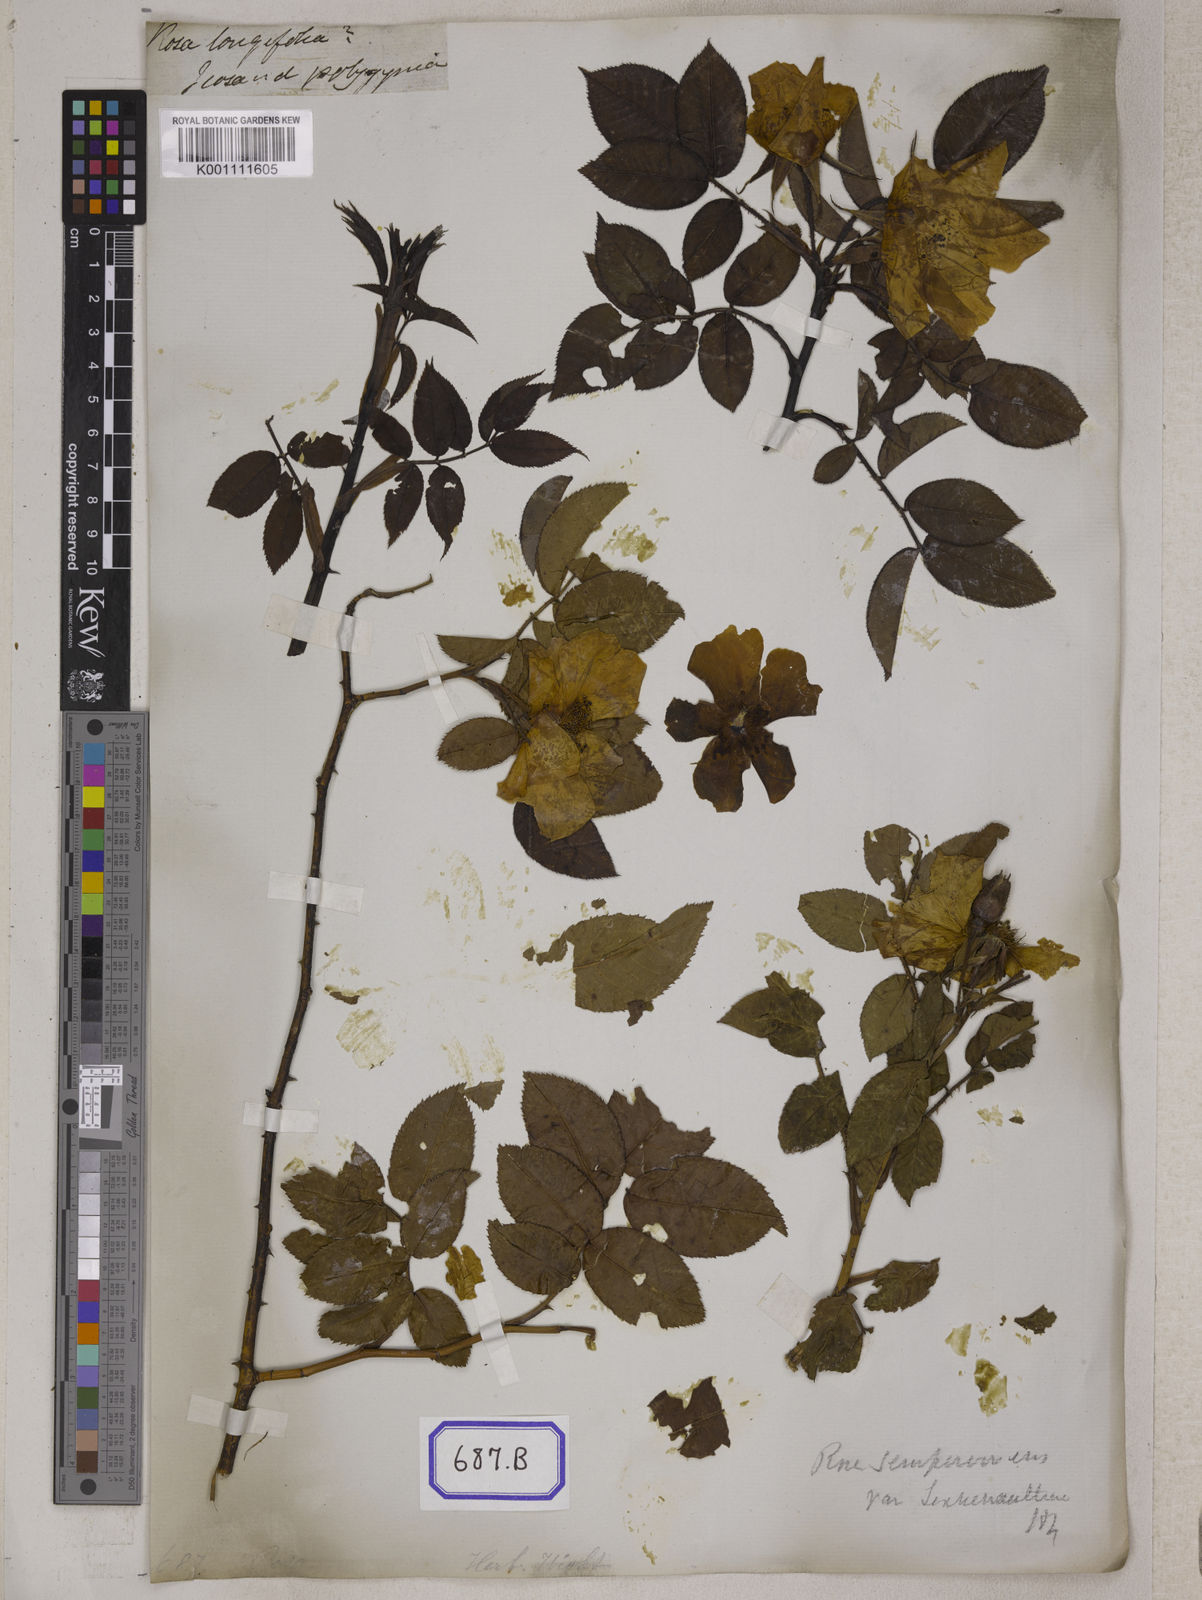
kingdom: Plantae
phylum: Tracheophyta
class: Magnoliopsida
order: Rosales
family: Rosaceae
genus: Rosa
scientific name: Rosa
